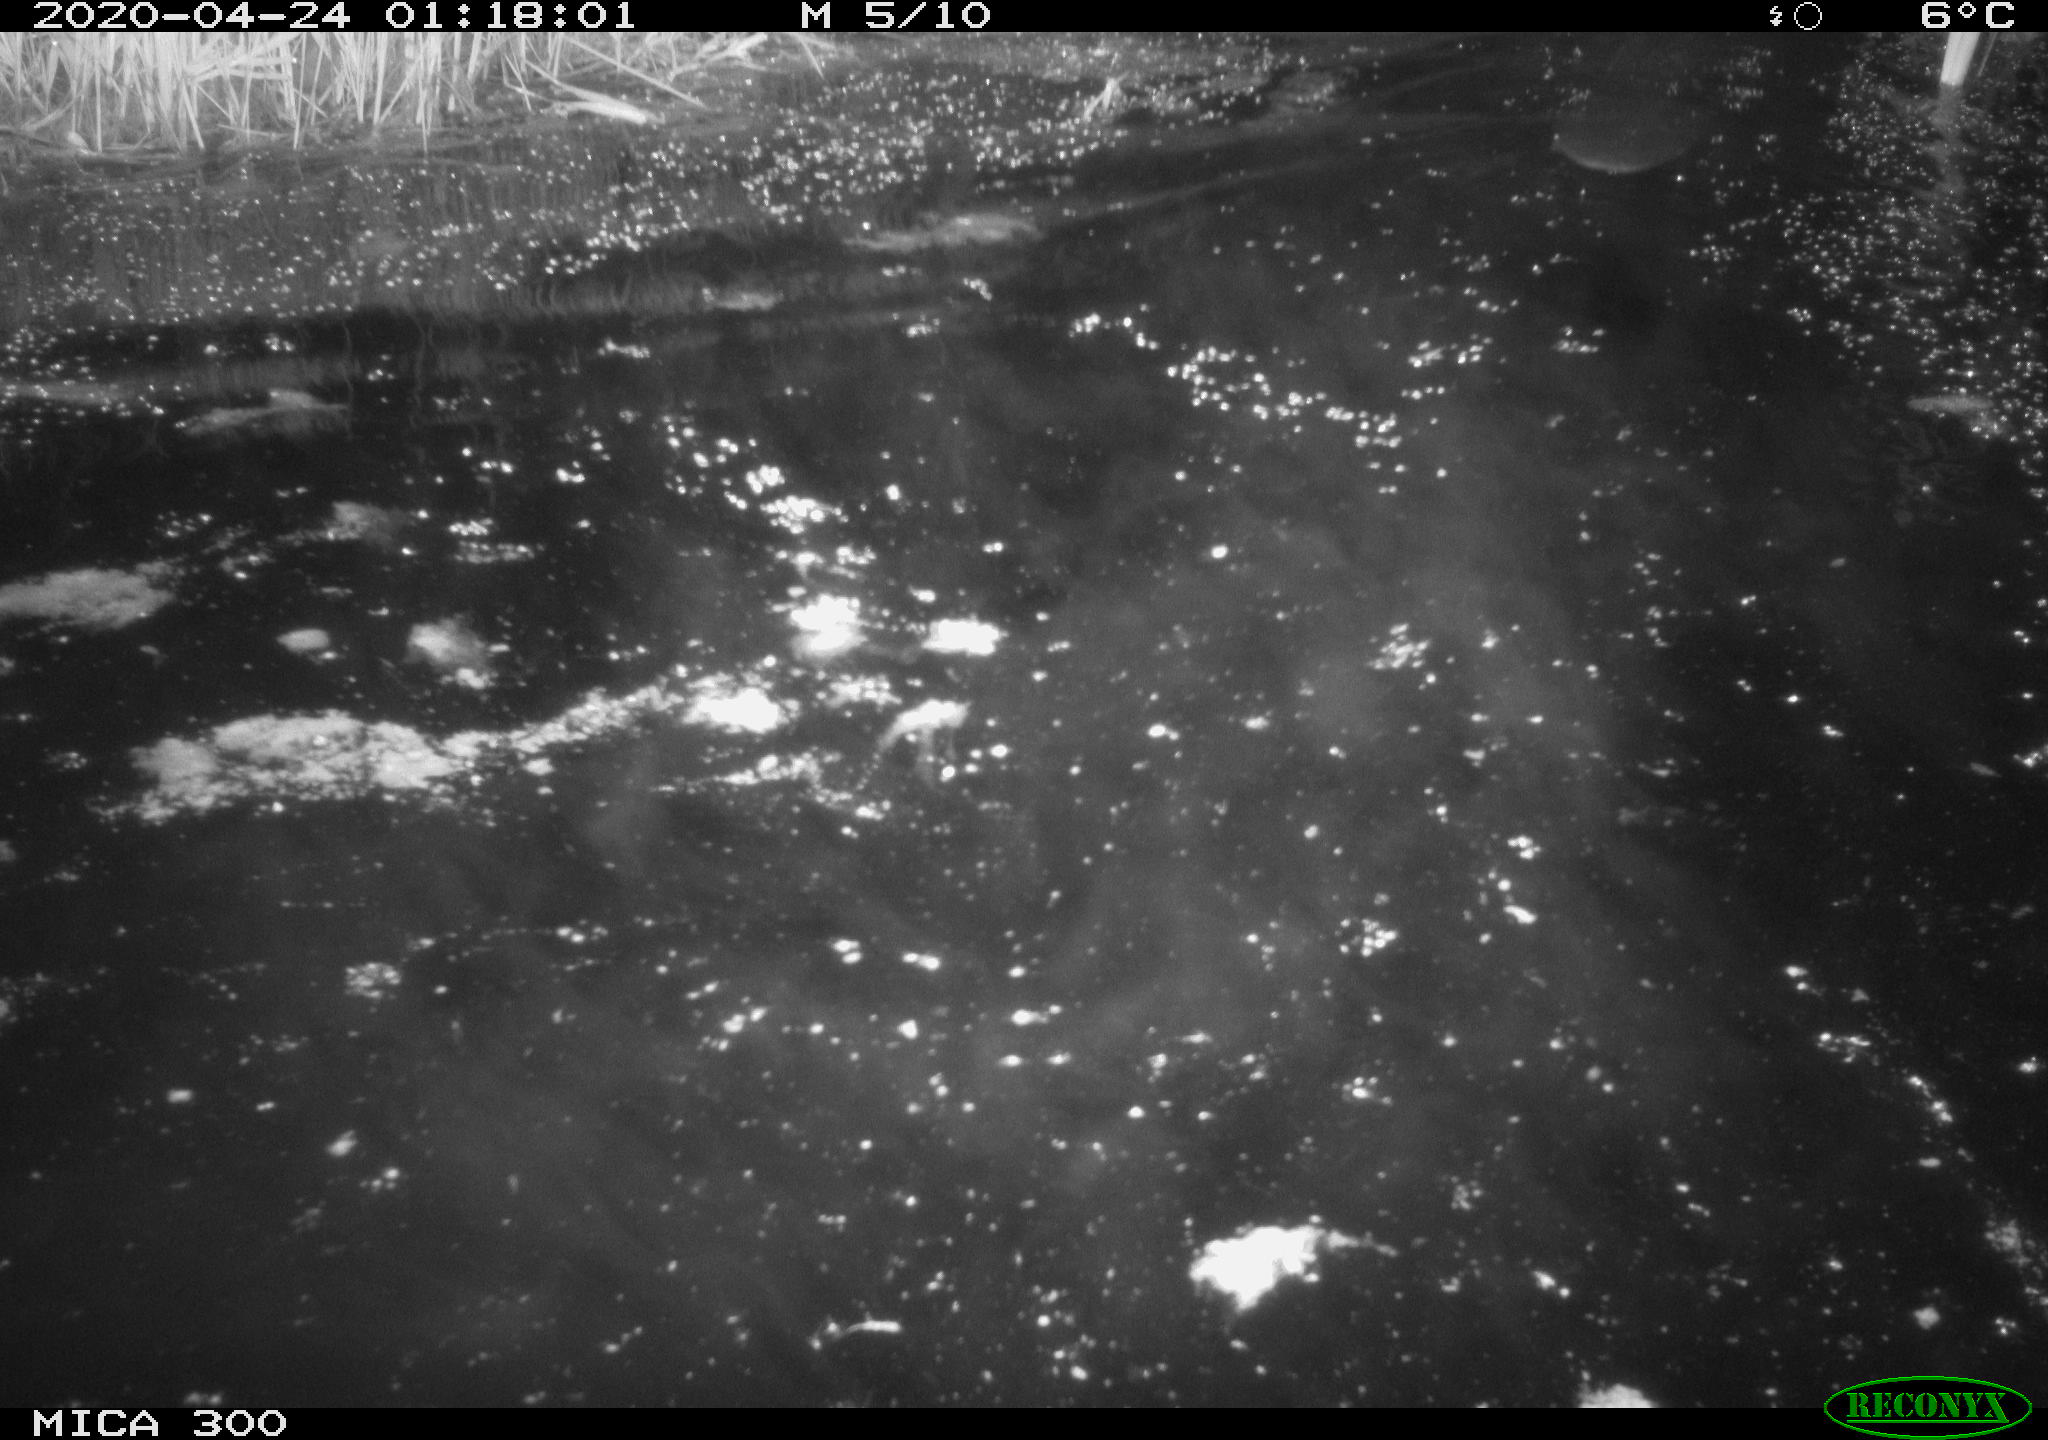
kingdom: Animalia
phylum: Chordata
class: Mammalia
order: Rodentia
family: Castoridae
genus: Castor
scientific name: Castor fiber
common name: Eurasian beaver
